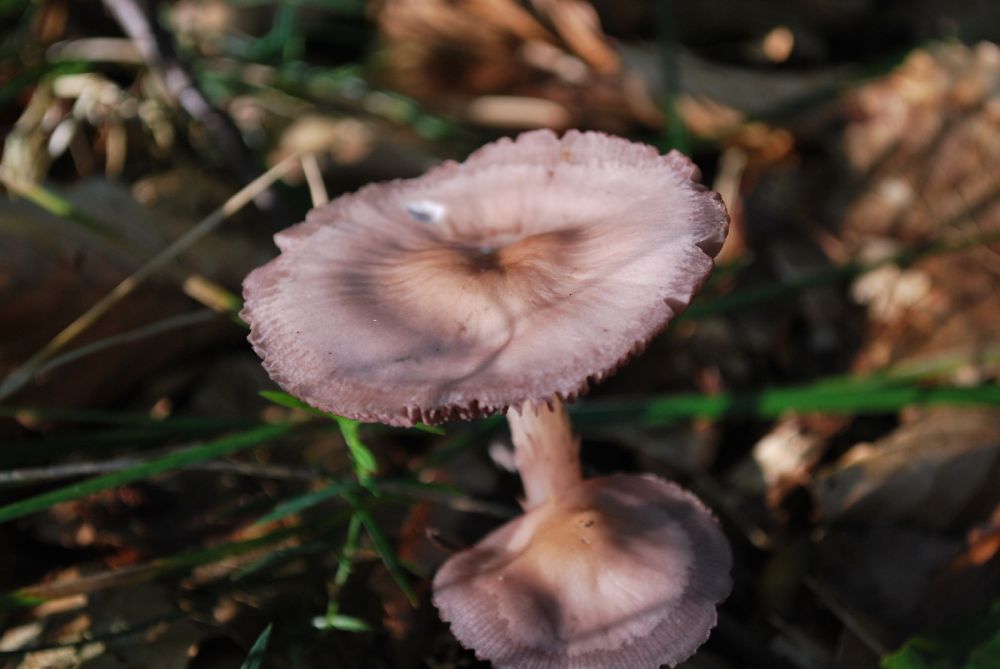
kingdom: Fungi
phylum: Basidiomycota
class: Agaricomycetes
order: Agaricales
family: Mycenaceae
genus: Mycena
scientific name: Mycena pelianthina
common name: mørkbladet huesvamp
